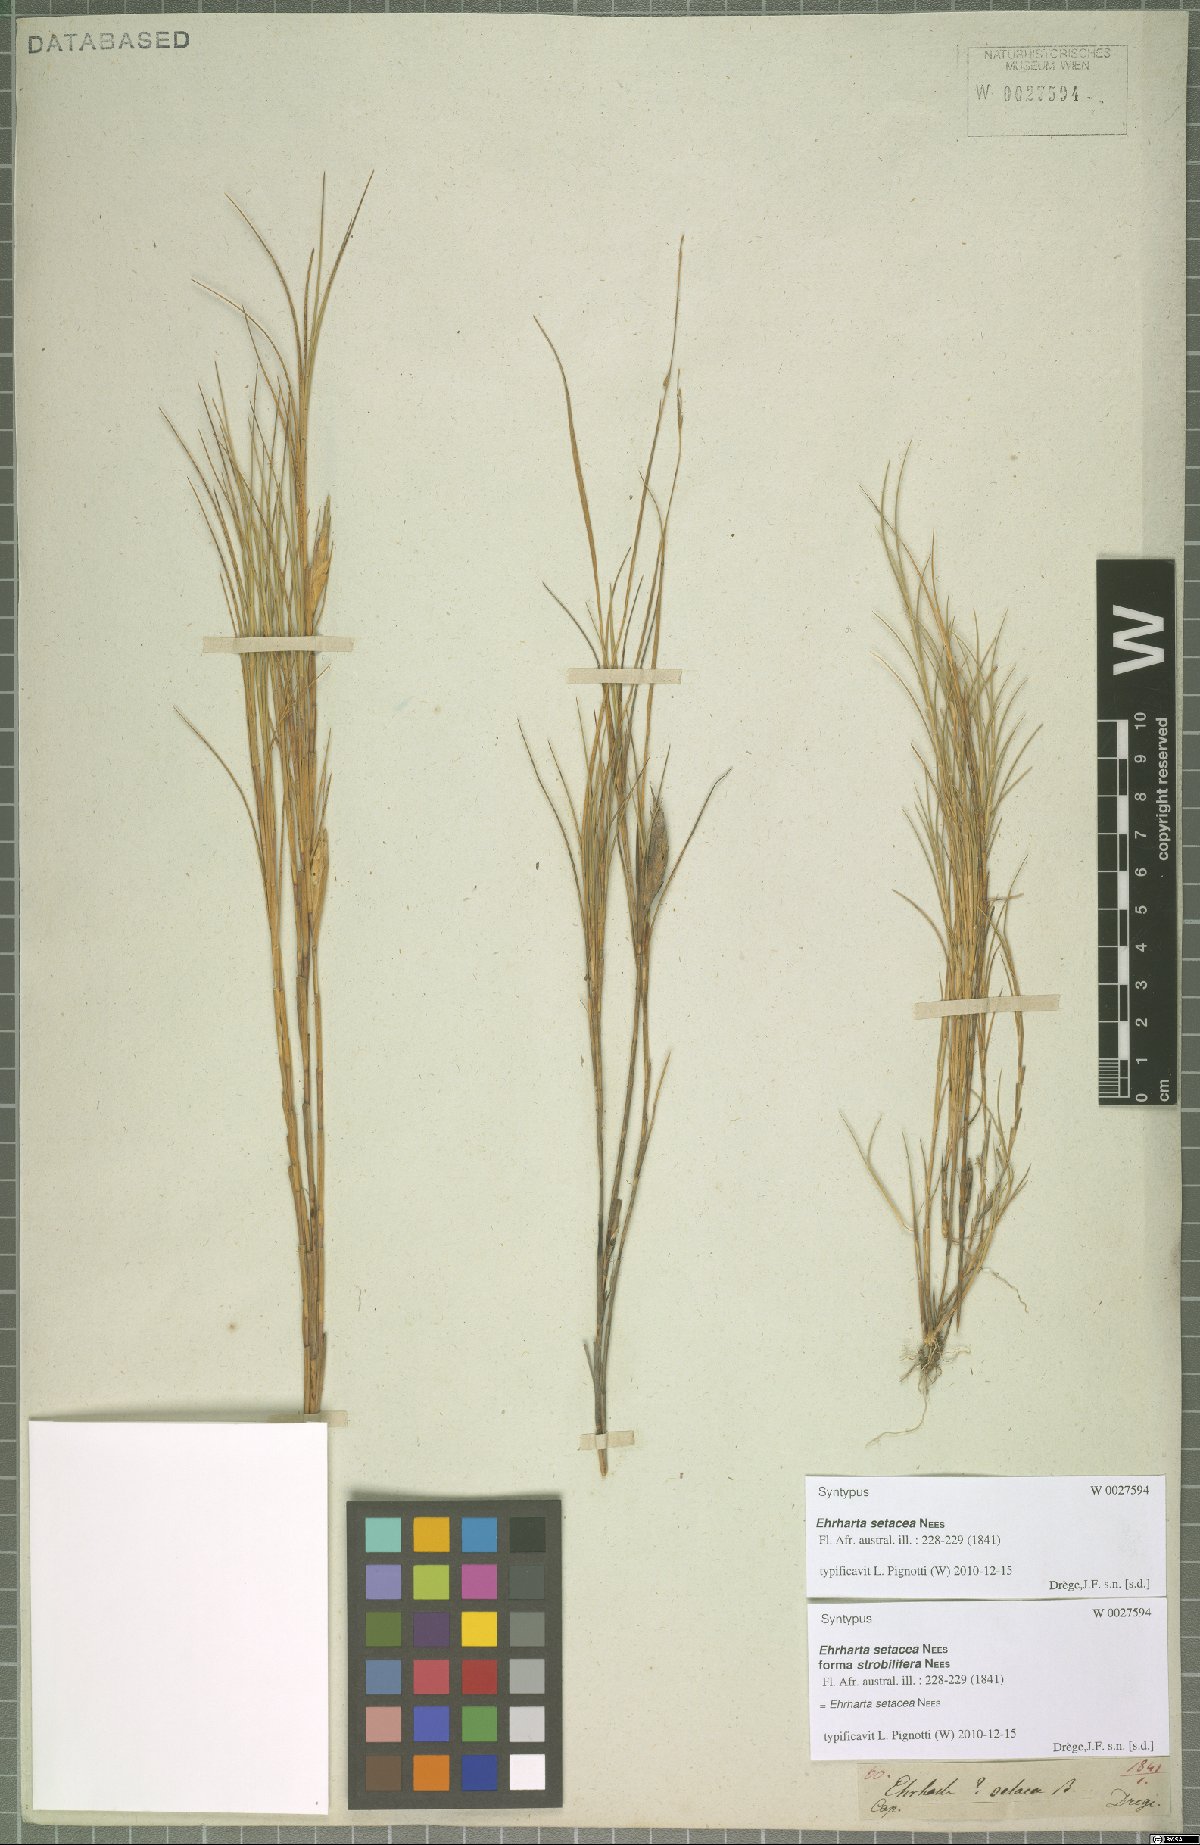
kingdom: Plantae
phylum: Tracheophyta
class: Liliopsida
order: Poales
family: Poaceae
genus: Ehrharta
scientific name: Ehrharta setacea
